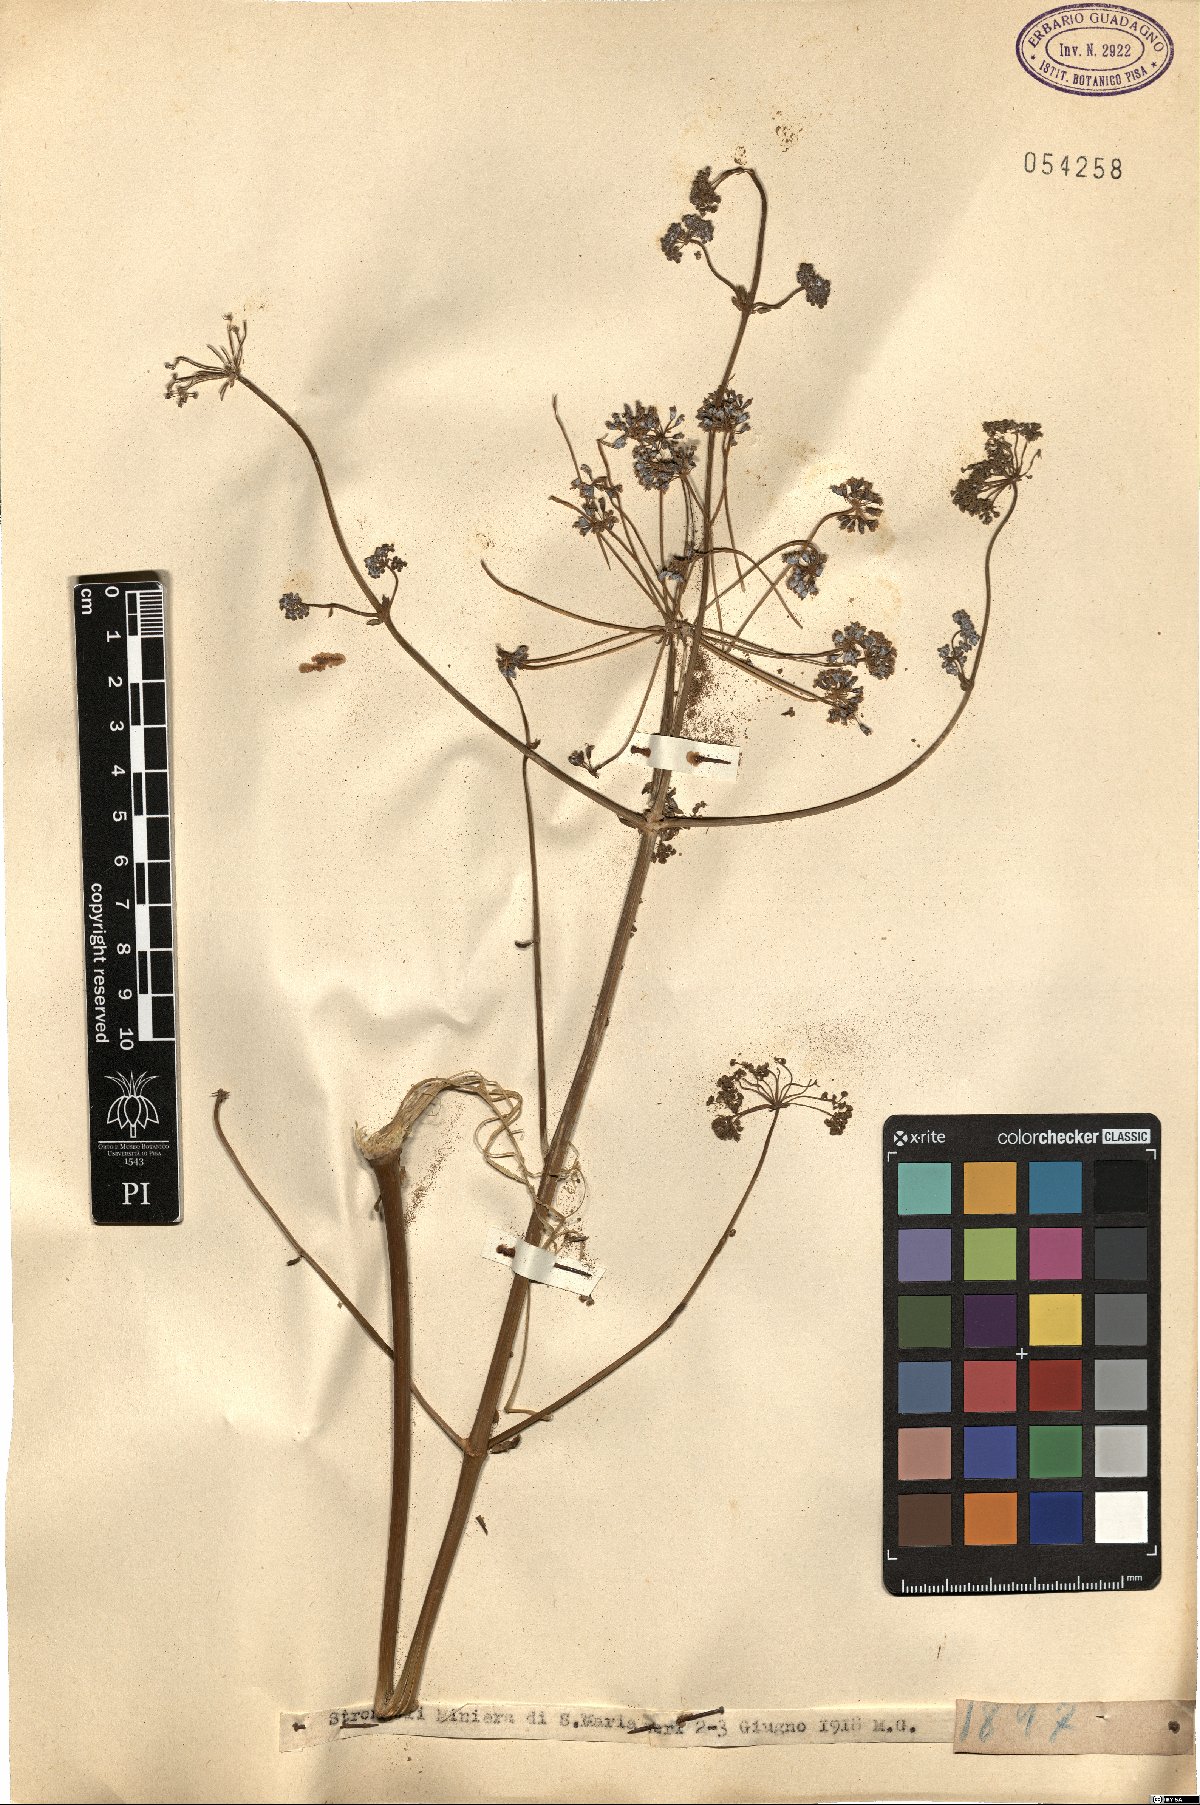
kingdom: Plantae
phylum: Tracheophyta
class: Magnoliopsida
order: Apiales
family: Apiaceae
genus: Opopanax
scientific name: Opopanax
